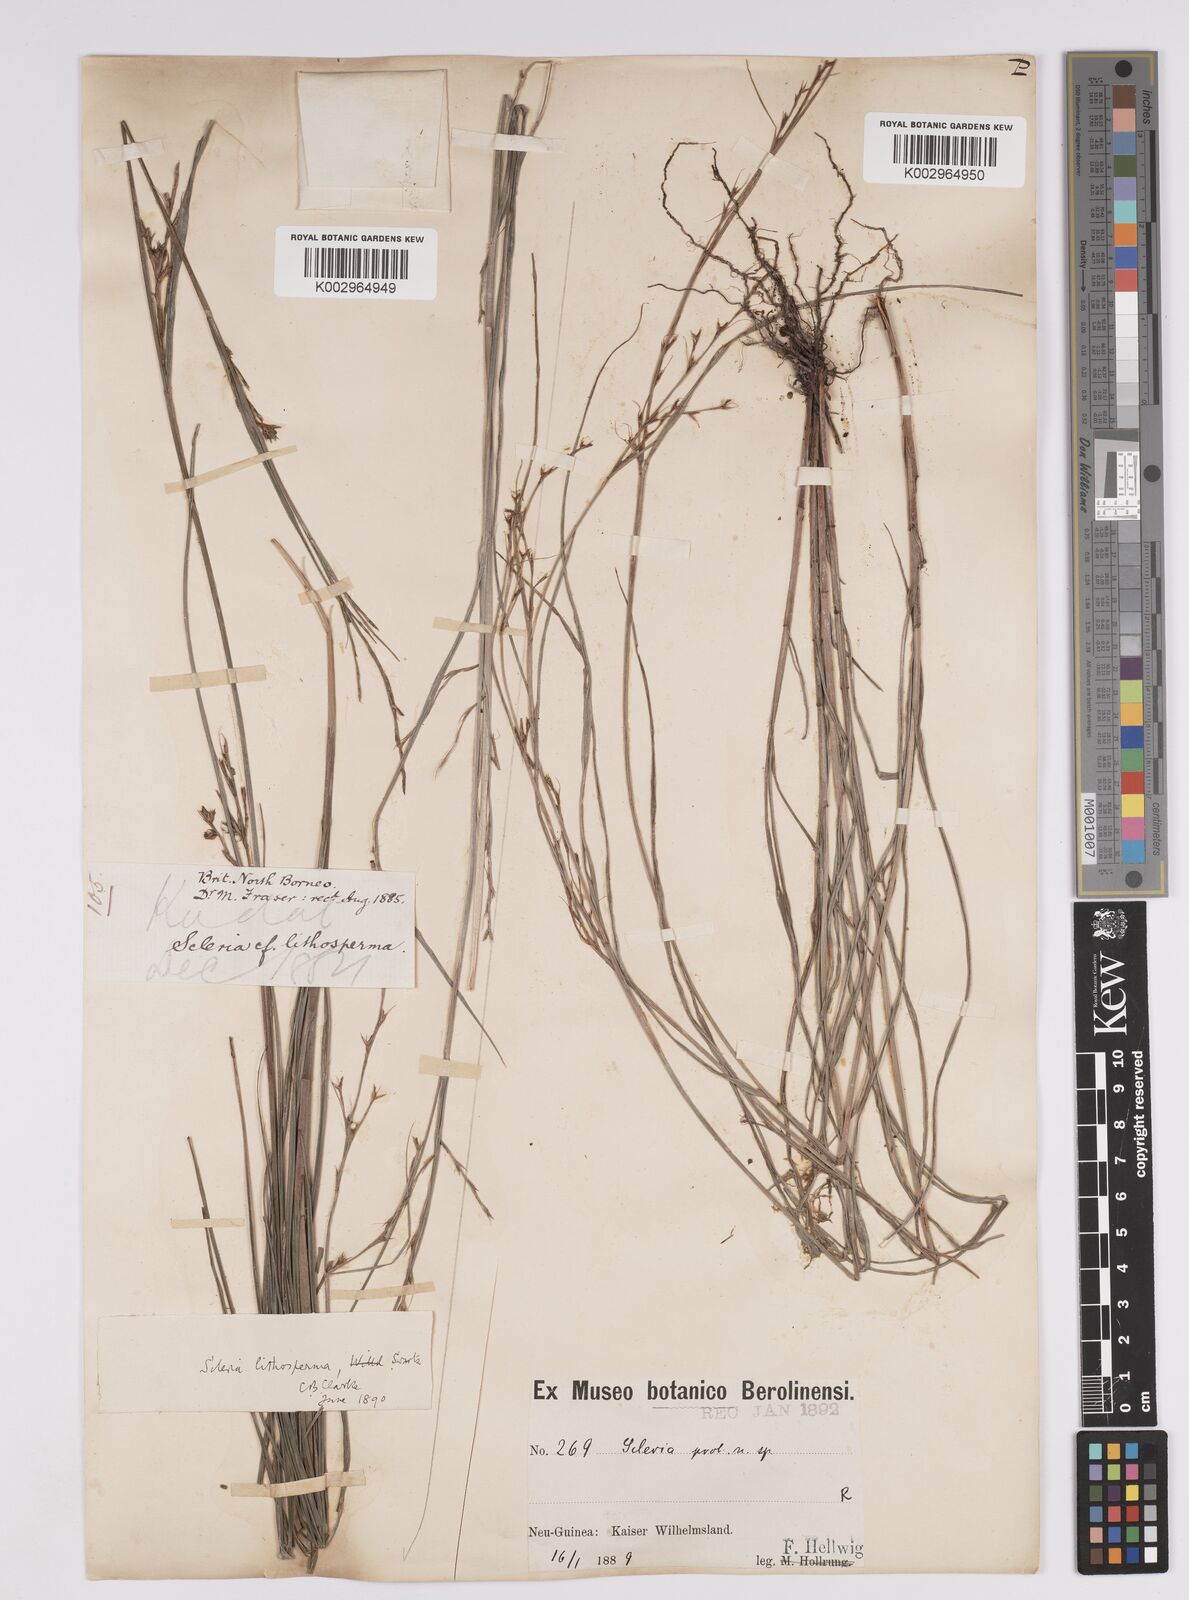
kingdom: Plantae
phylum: Tracheophyta
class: Liliopsida
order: Poales
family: Cyperaceae
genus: Scleria
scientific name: Scleria lithosperma
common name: Florida keys nut-rush
